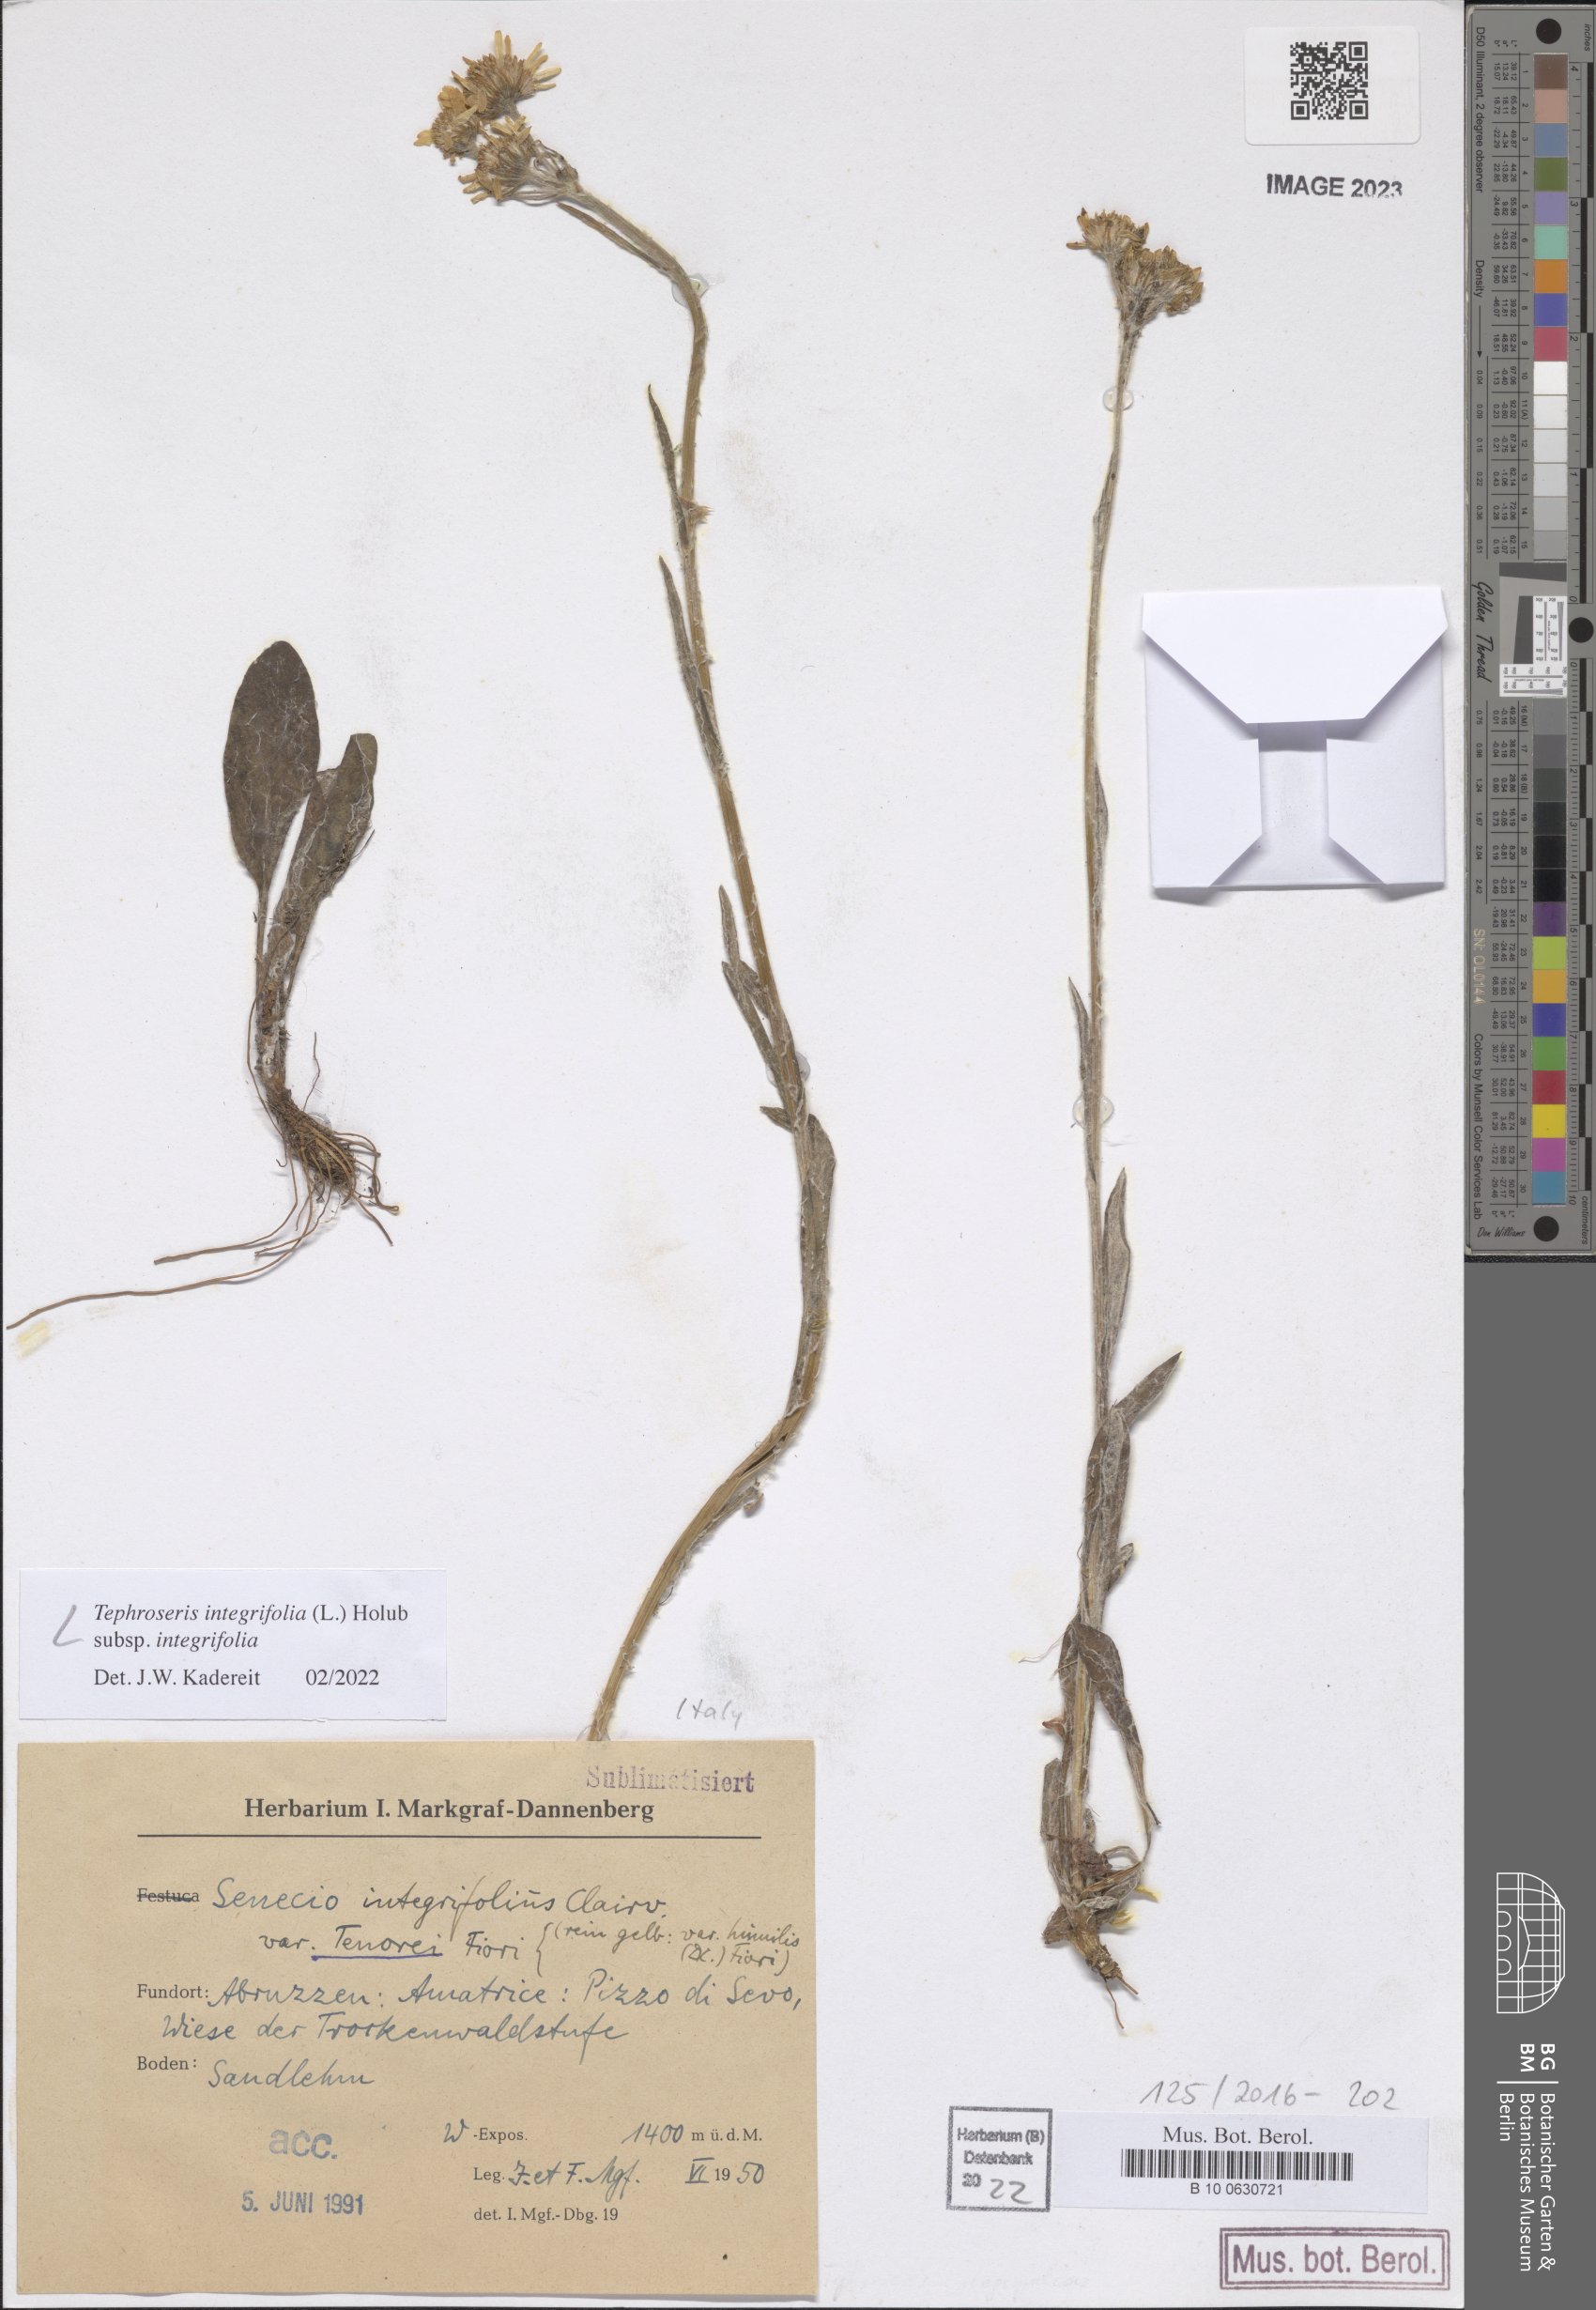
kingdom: Plantae
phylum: Tracheophyta
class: Magnoliopsida
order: Asterales
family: Asteraceae
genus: Tephroseris
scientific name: Tephroseris integrifolia
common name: Field fleawort
